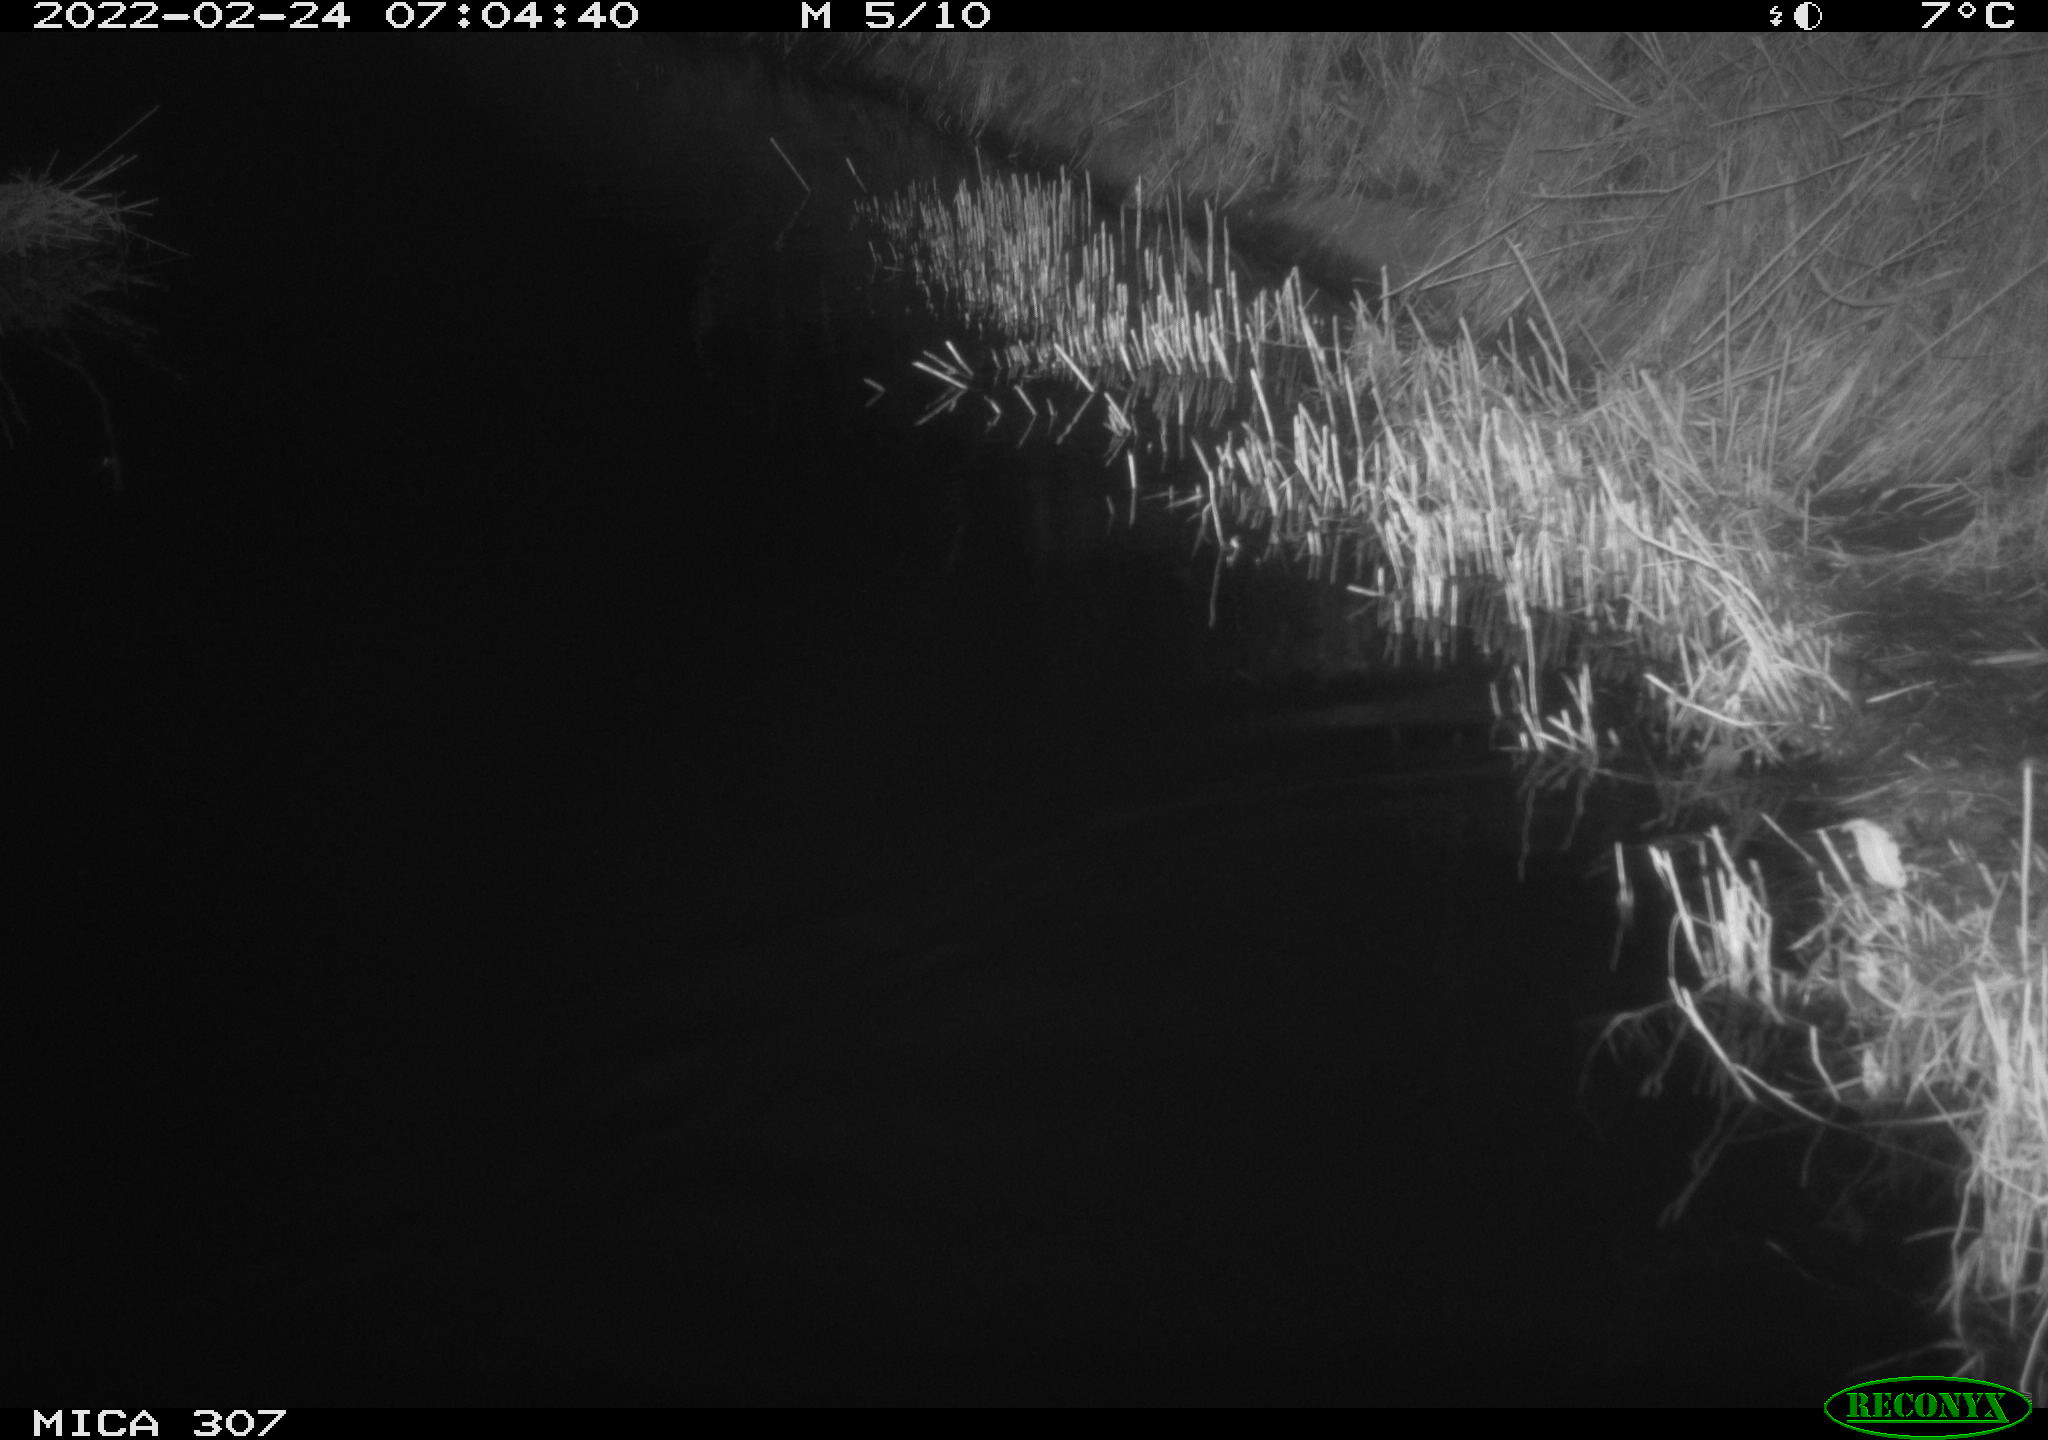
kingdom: Animalia
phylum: Chordata
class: Mammalia
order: Rodentia
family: Muridae
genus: Rattus
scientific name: Rattus norvegicus
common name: Brown rat
